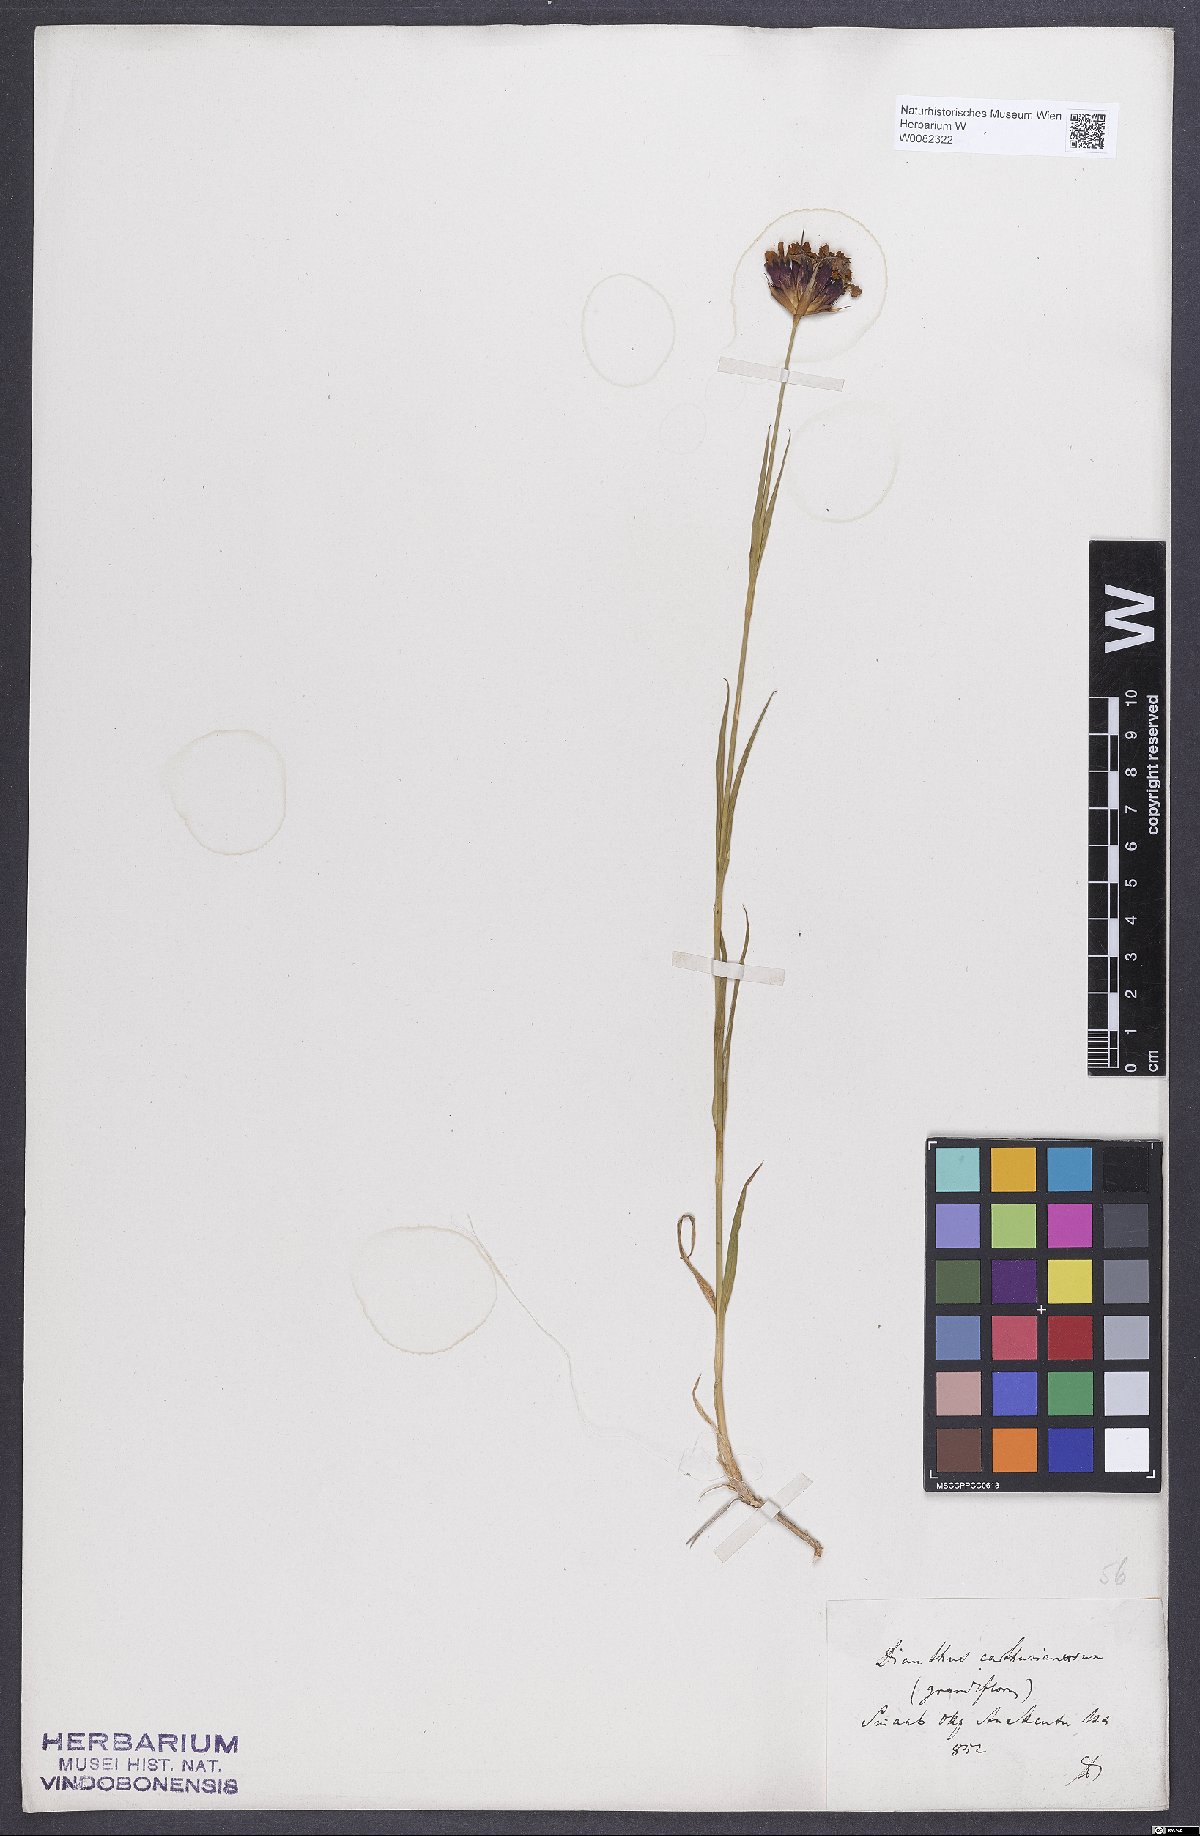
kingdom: Plantae
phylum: Tracheophyta
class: Magnoliopsida
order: Caryophyllales
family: Caryophyllaceae
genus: Dianthus
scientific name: Dianthus carthusianorum
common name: Carthusian pink
